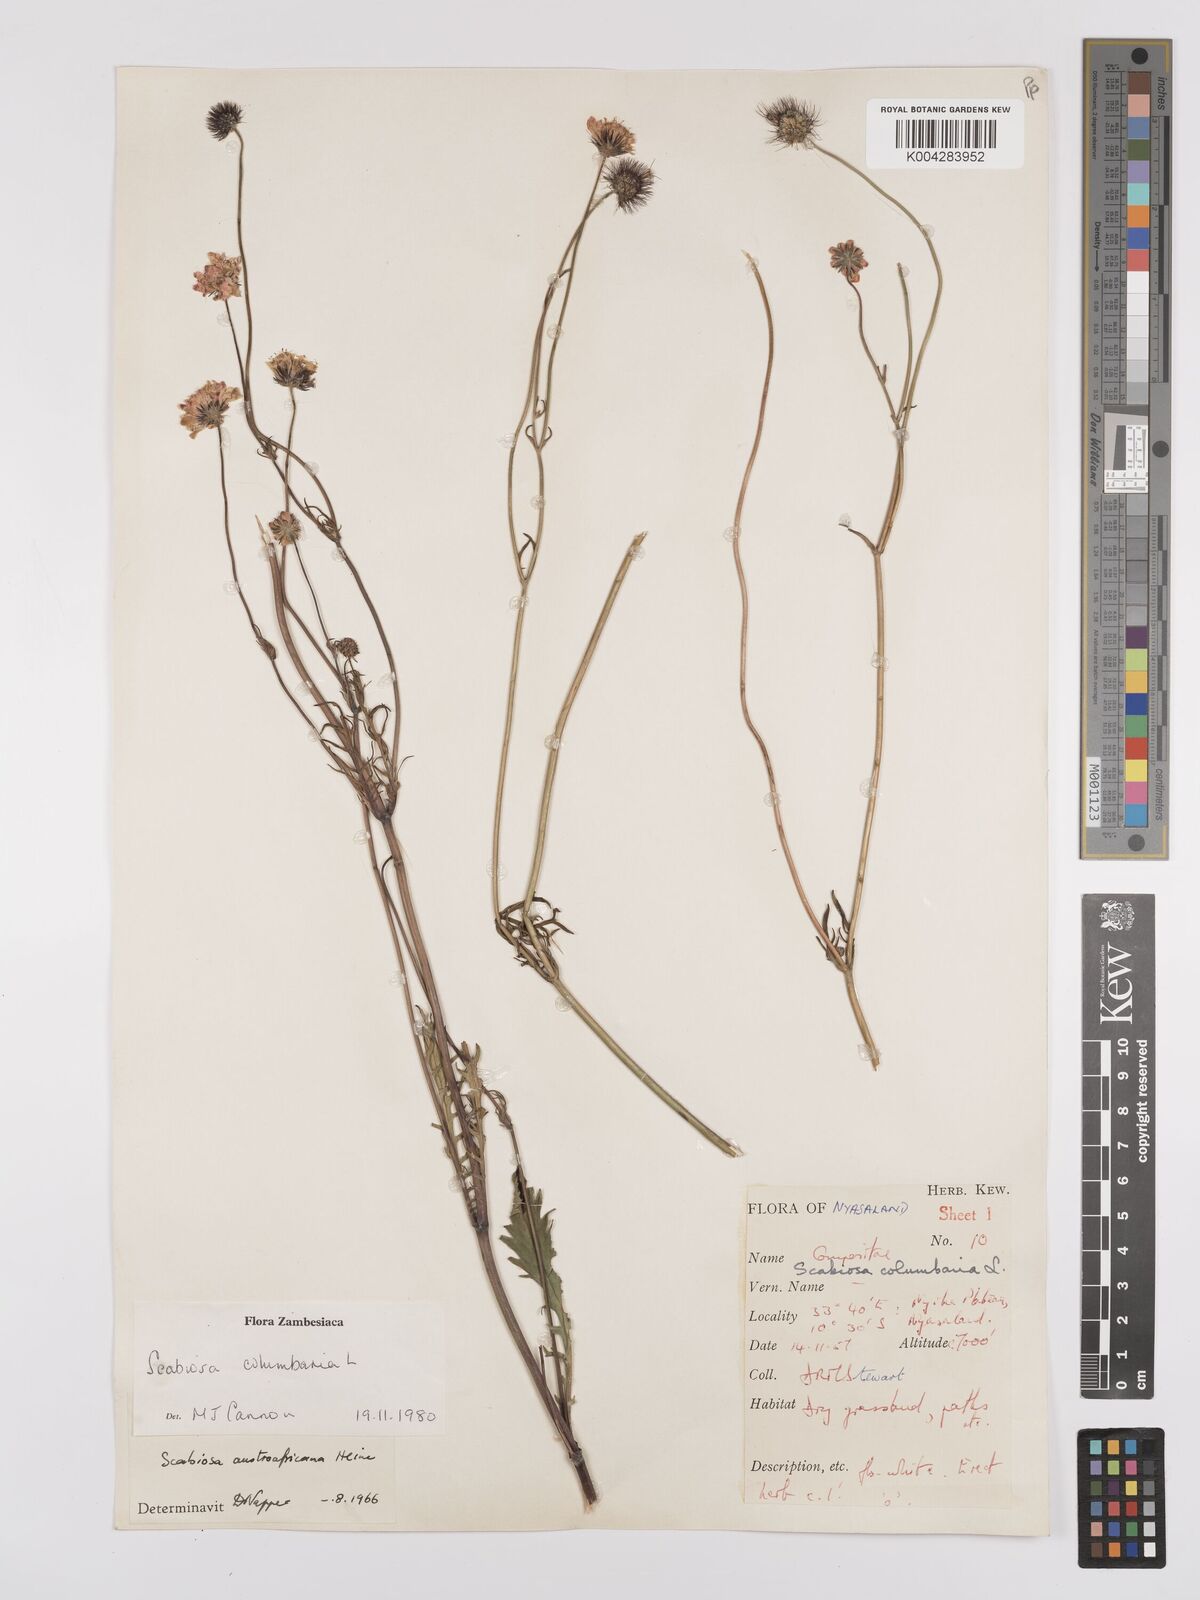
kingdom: Plantae
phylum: Tracheophyta
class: Magnoliopsida
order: Dipsacales
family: Caprifoliaceae
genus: Scabiosa
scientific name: Scabiosa austroafricana
